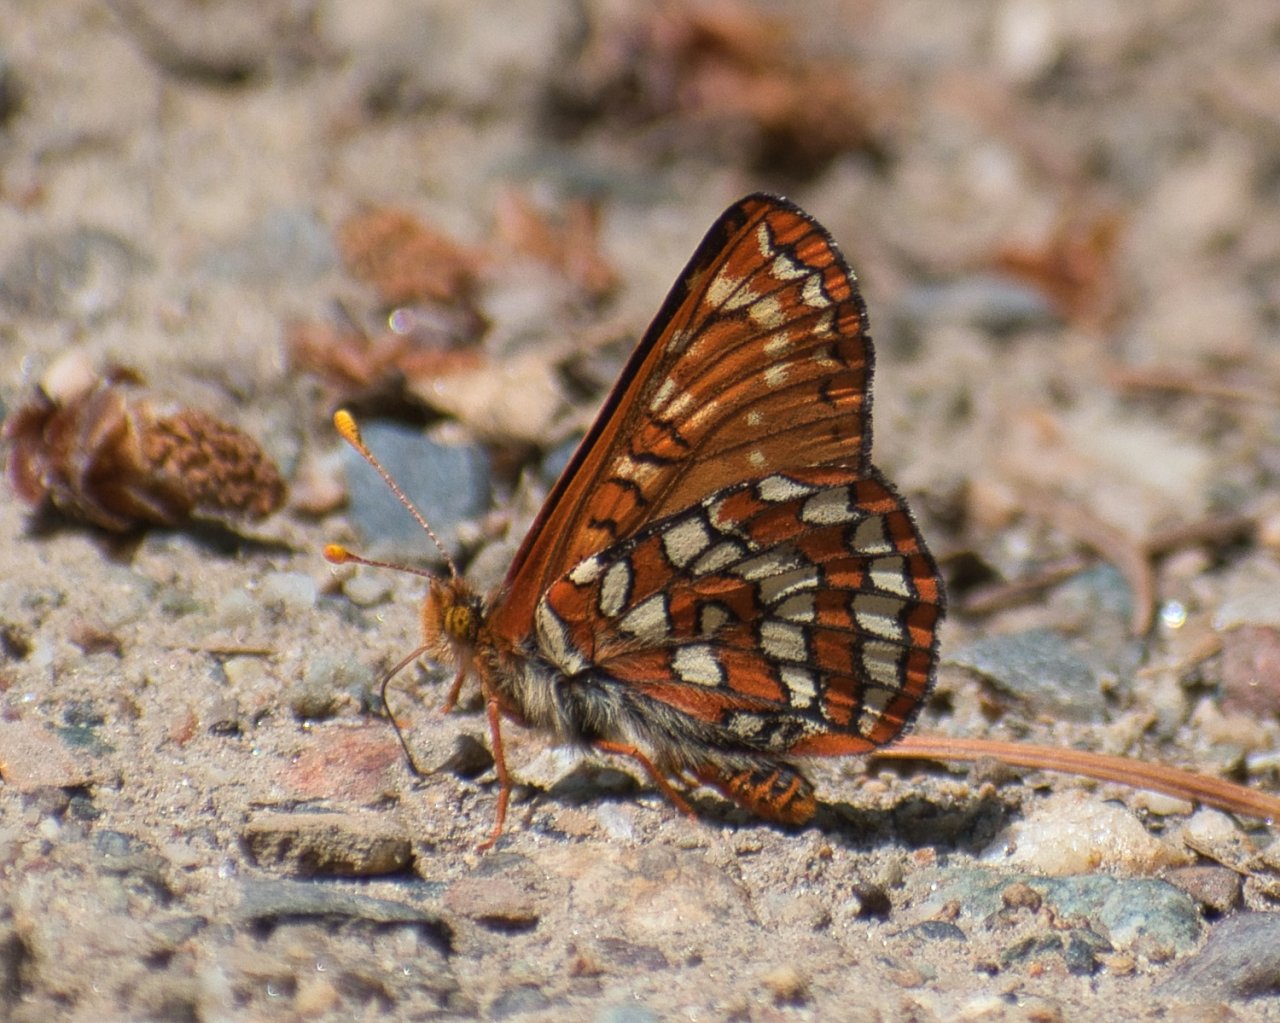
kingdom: Animalia
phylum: Arthropoda
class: Insecta
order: Lepidoptera
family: Nymphalidae
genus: Occidryas
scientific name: Occidryas anicia
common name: Anicia Checkerspot
